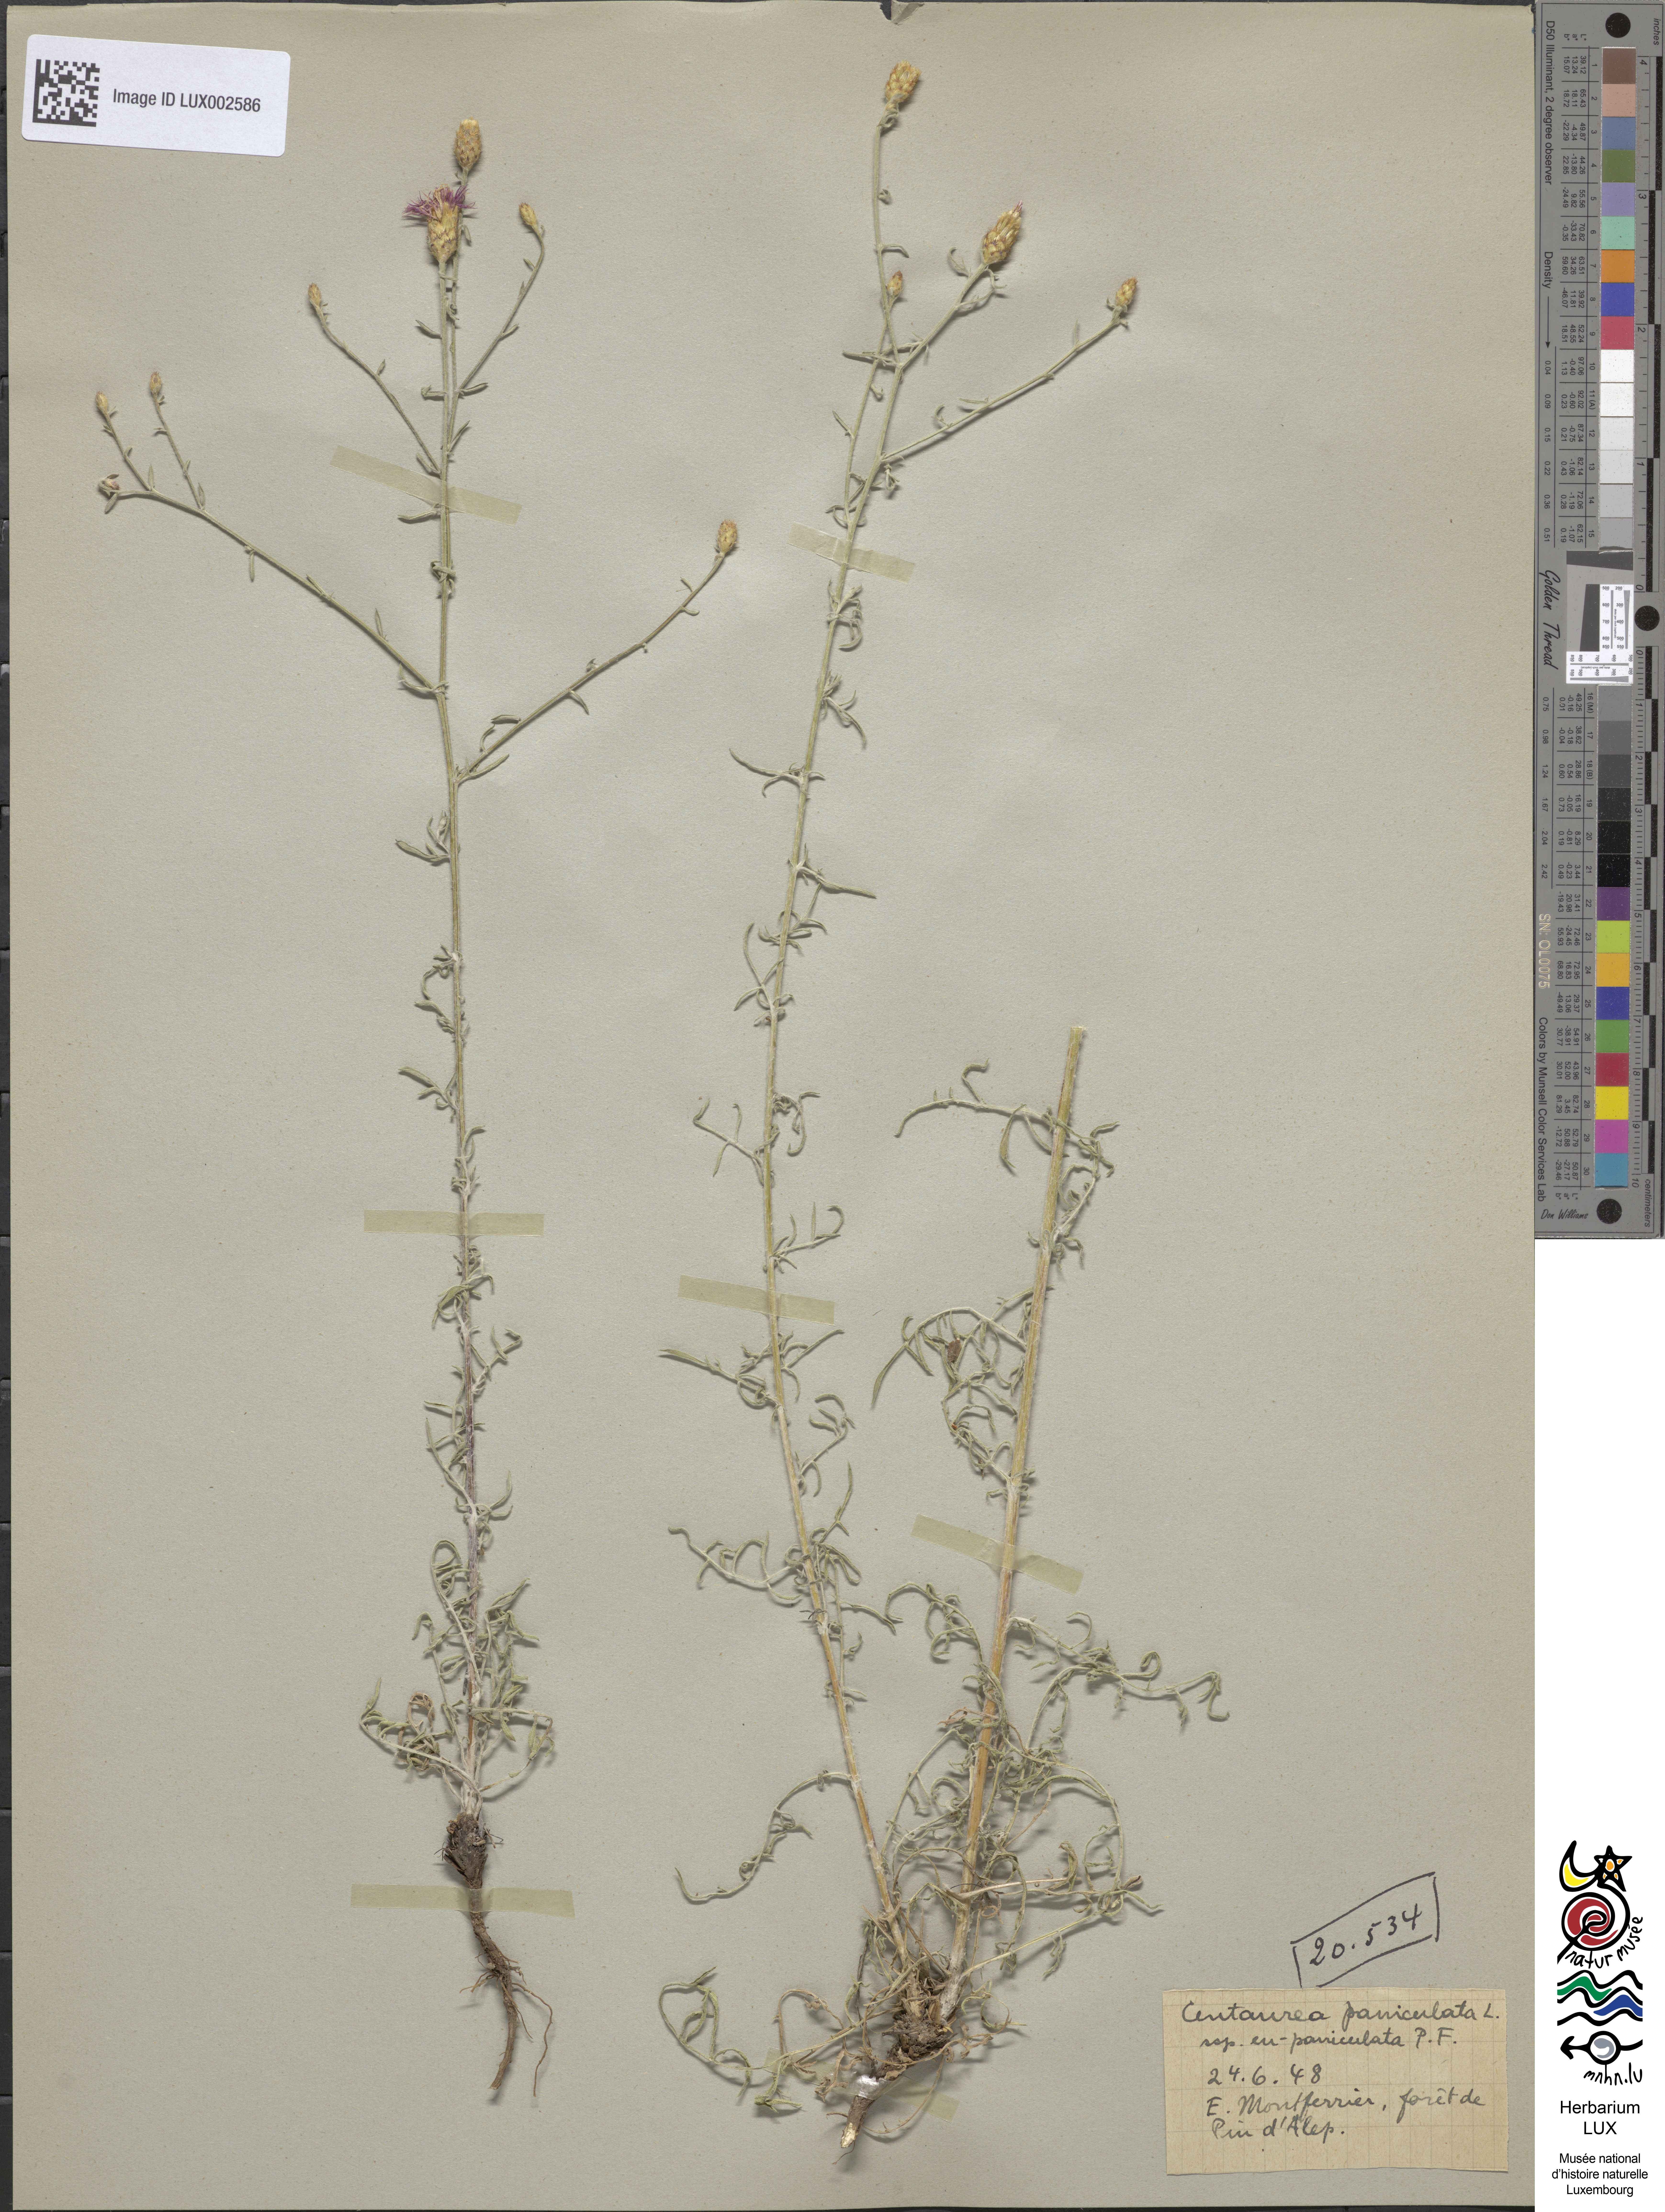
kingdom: Plantae
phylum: Tracheophyta
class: Magnoliopsida
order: Asterales
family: Asteraceae
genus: Centaurea
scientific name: Centaurea paniculata
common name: Jersey knapweed
